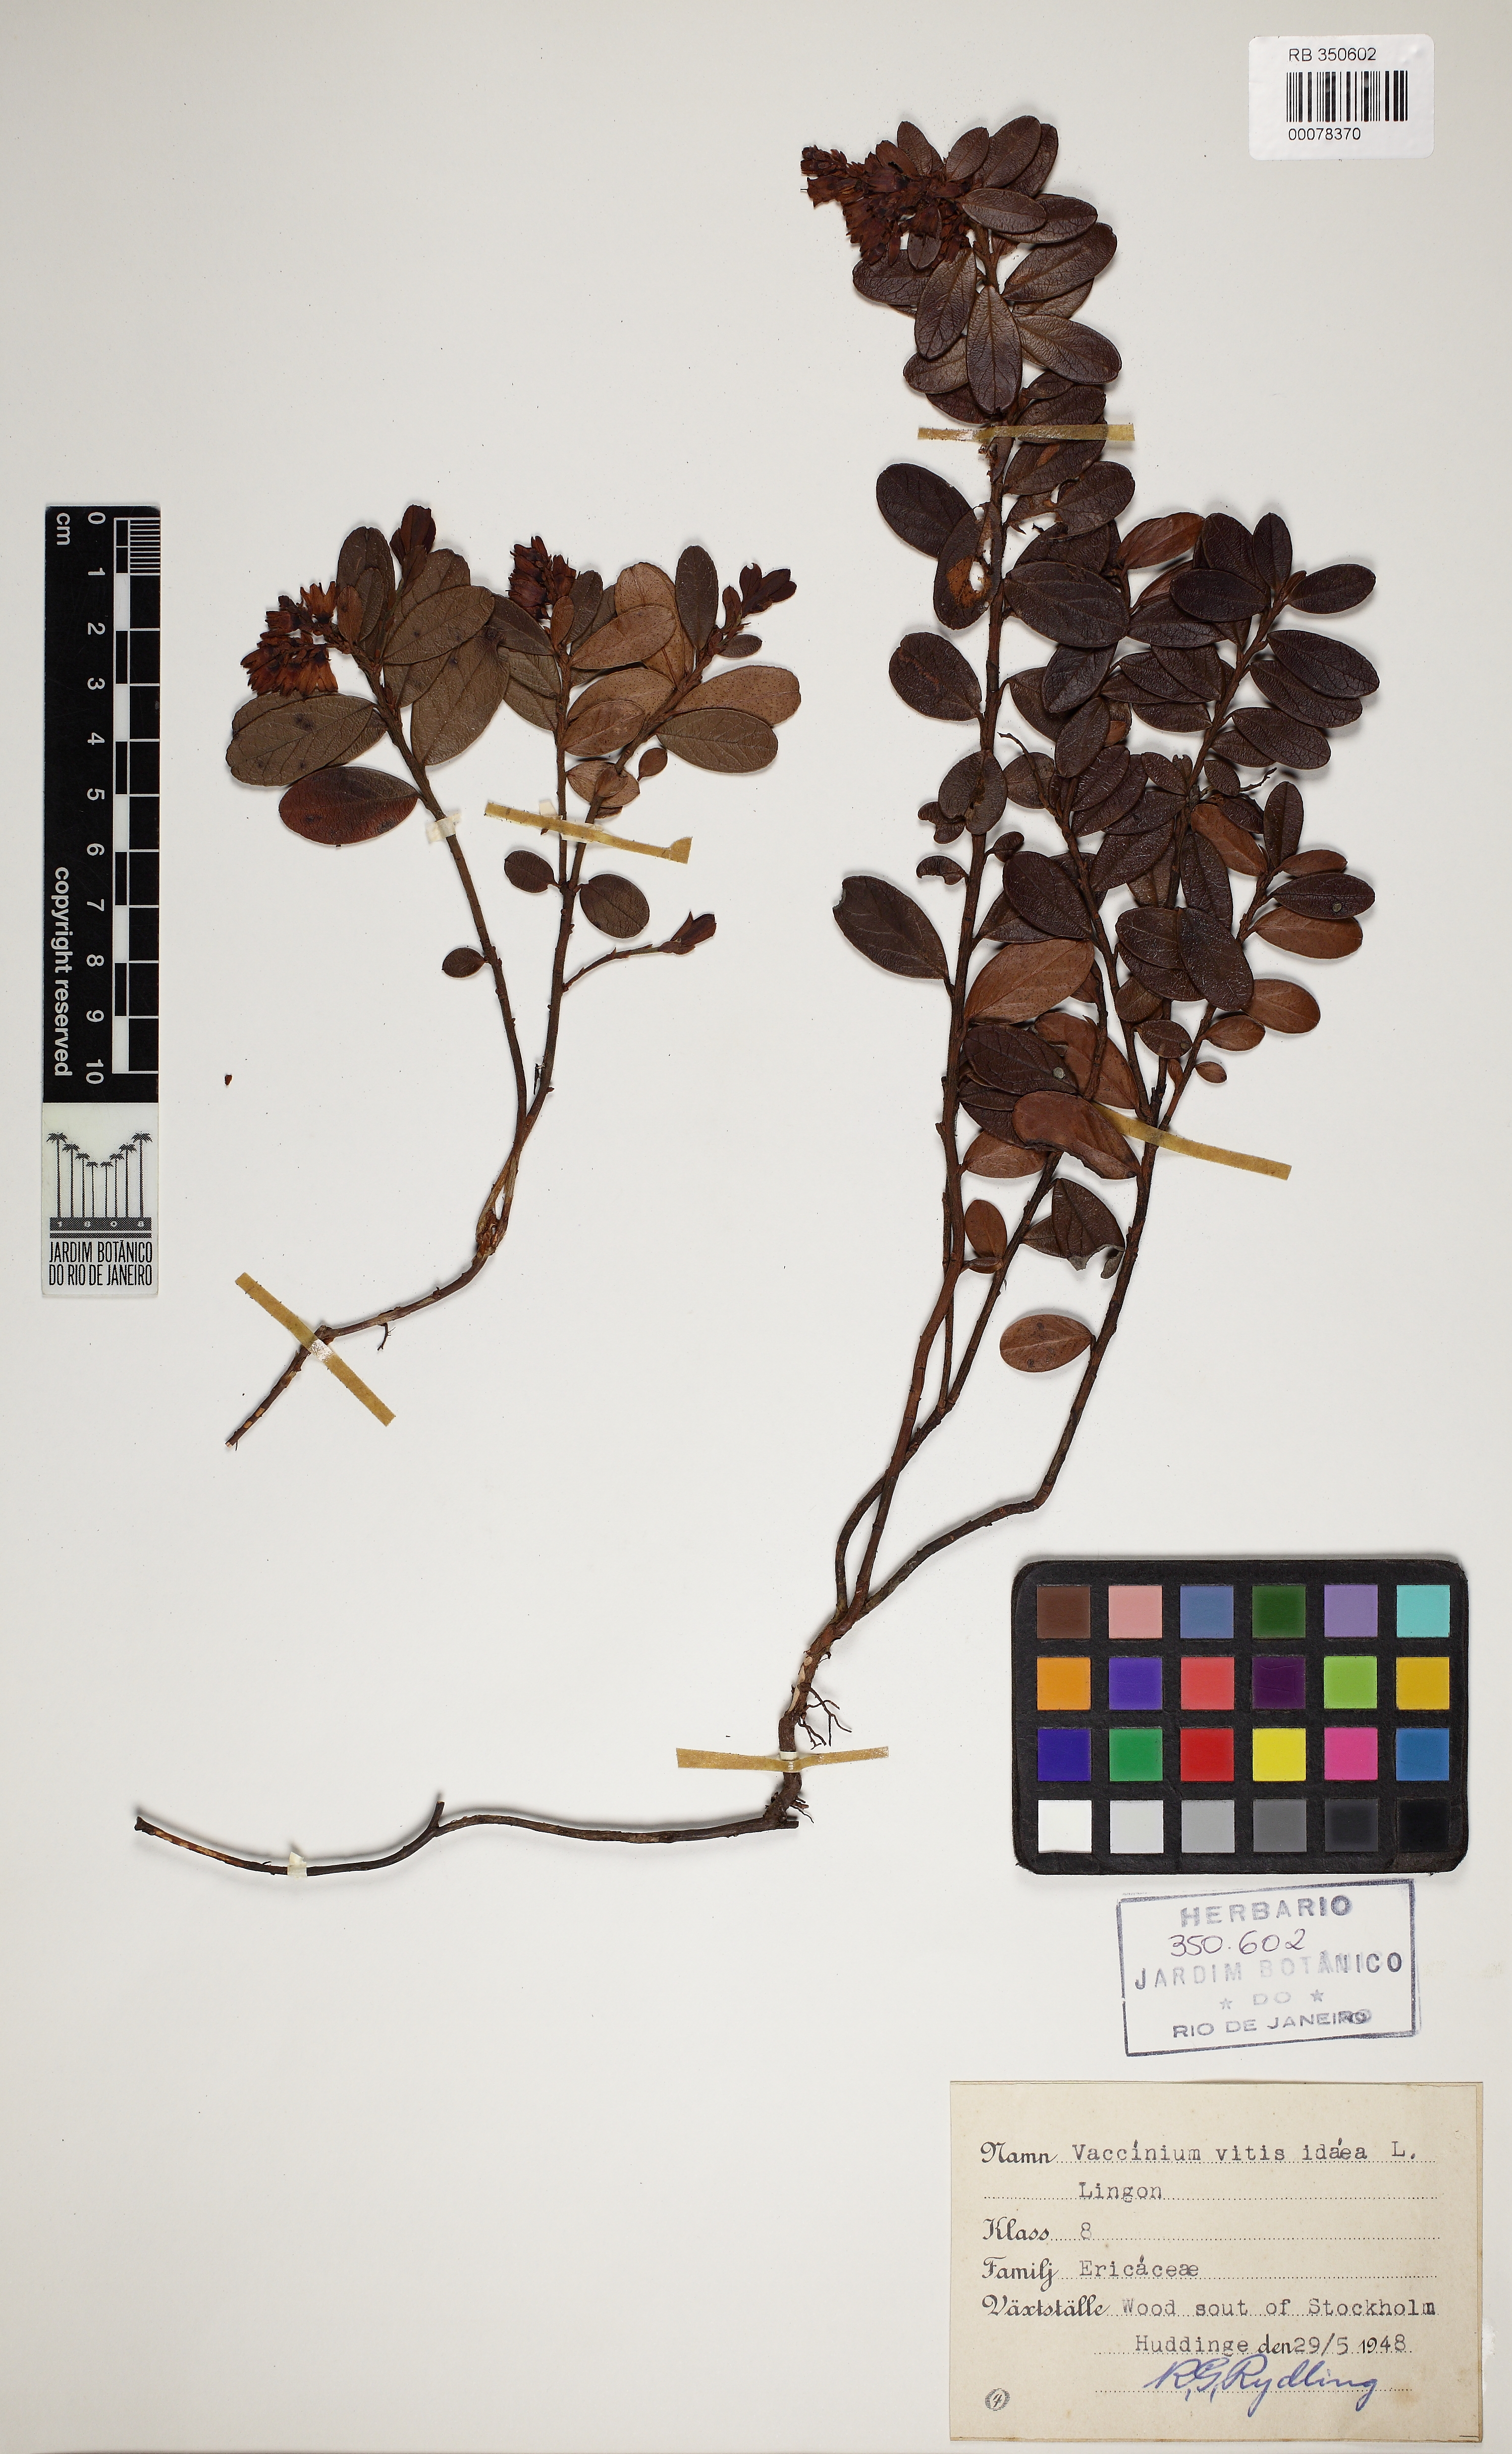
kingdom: Plantae
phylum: Tracheophyta
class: Magnoliopsida
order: Ericales
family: Ericaceae
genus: Vaccinium
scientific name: Vaccinium vitis-idaea
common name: Cowberry
